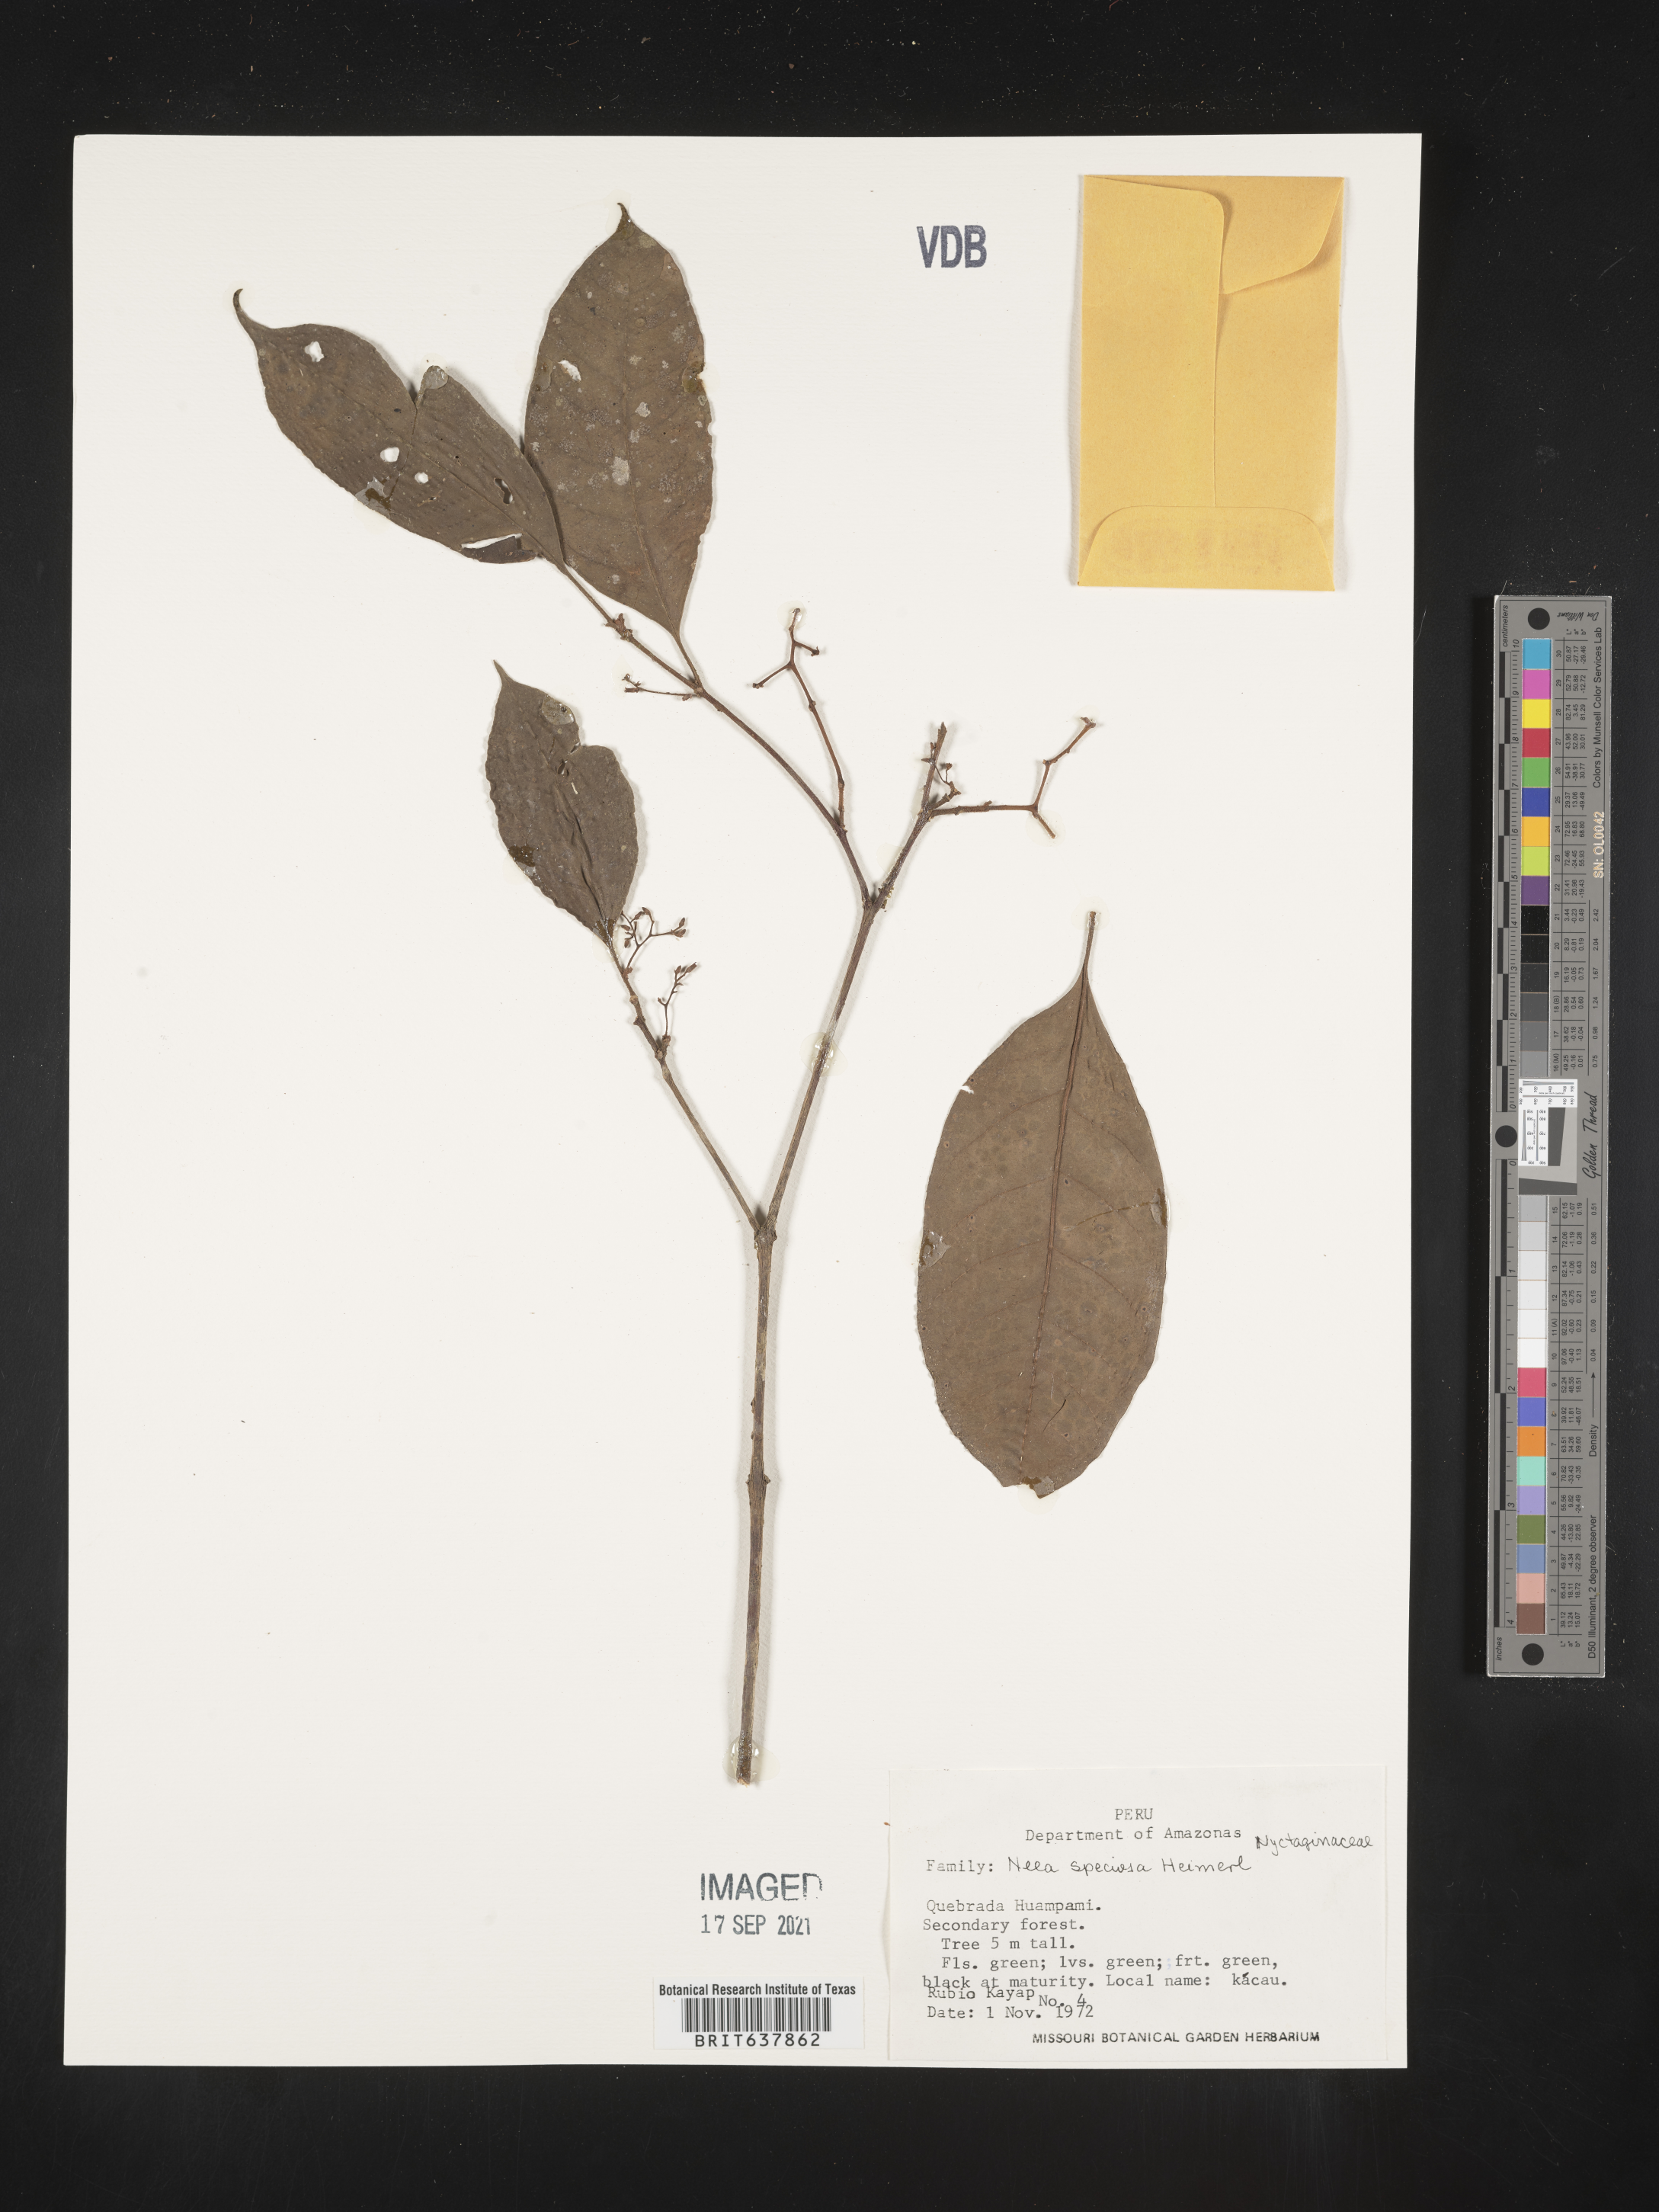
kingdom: Plantae
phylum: Tracheophyta
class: Magnoliopsida
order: Caryophyllales
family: Nyctaginaceae
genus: Neea
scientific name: Neea
